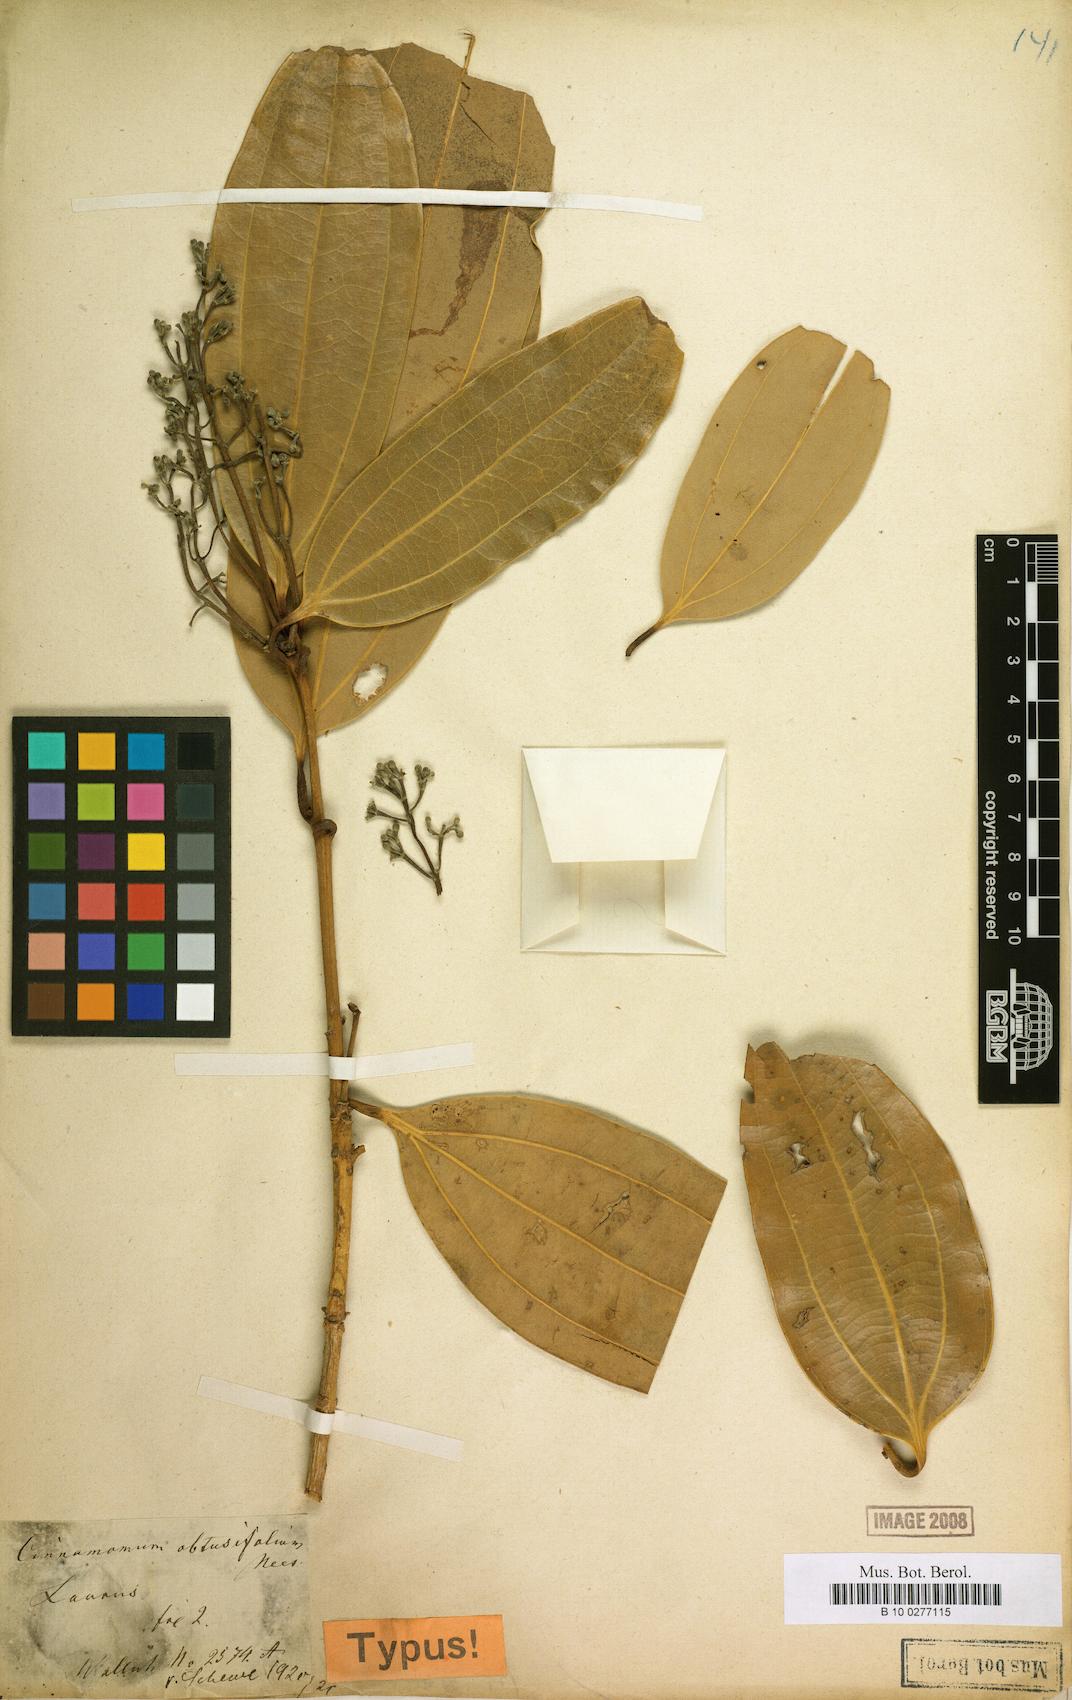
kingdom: Plantae
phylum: Tracheophyta
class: Magnoliopsida
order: Laurales
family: Lauraceae
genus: Cinnamomum
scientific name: Cinnamomum bejolghota
